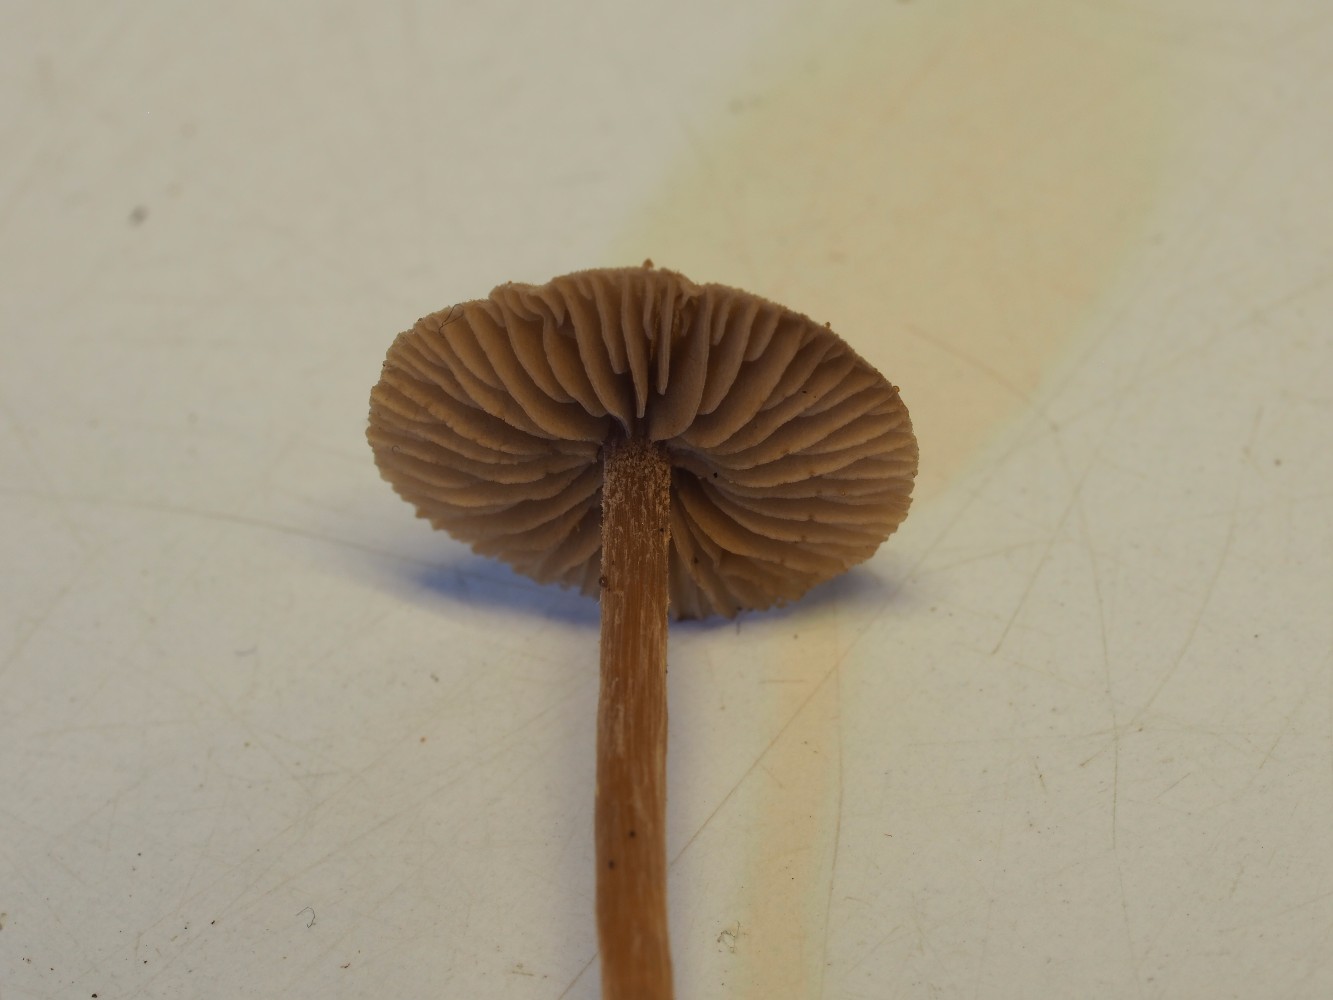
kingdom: Fungi
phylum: Basidiomycota
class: Agaricomycetes
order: Agaricales
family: Hymenogastraceae
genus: Naucoria
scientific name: Naucoria scolecina
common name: mørk elle-knaphat
